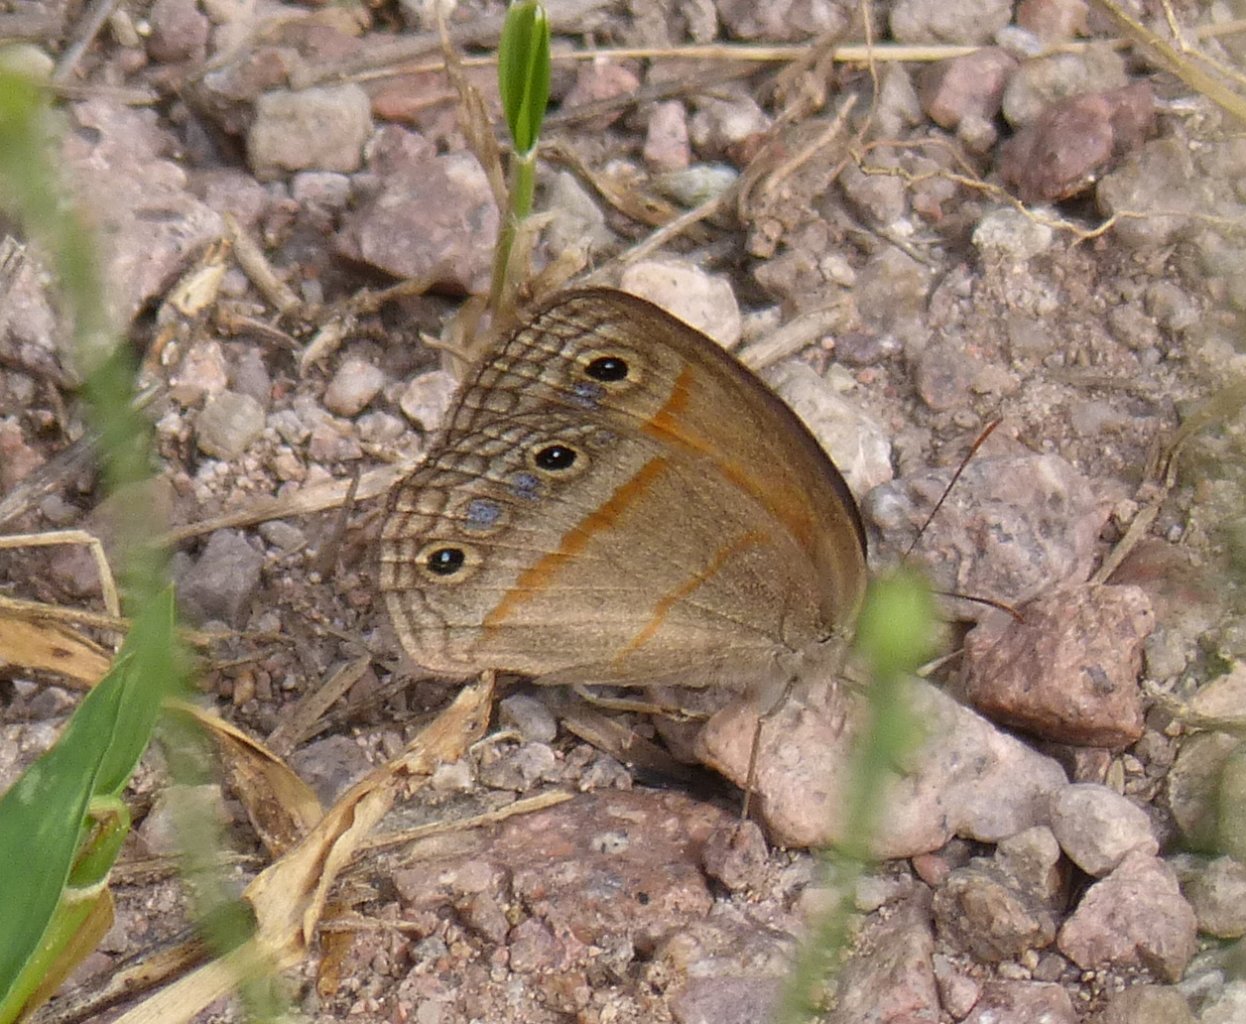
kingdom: Animalia
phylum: Arthropoda
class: Insecta
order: Lepidoptera
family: Nymphalidae
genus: Euptychia
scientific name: Euptychia rubricata
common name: Red Satyr
